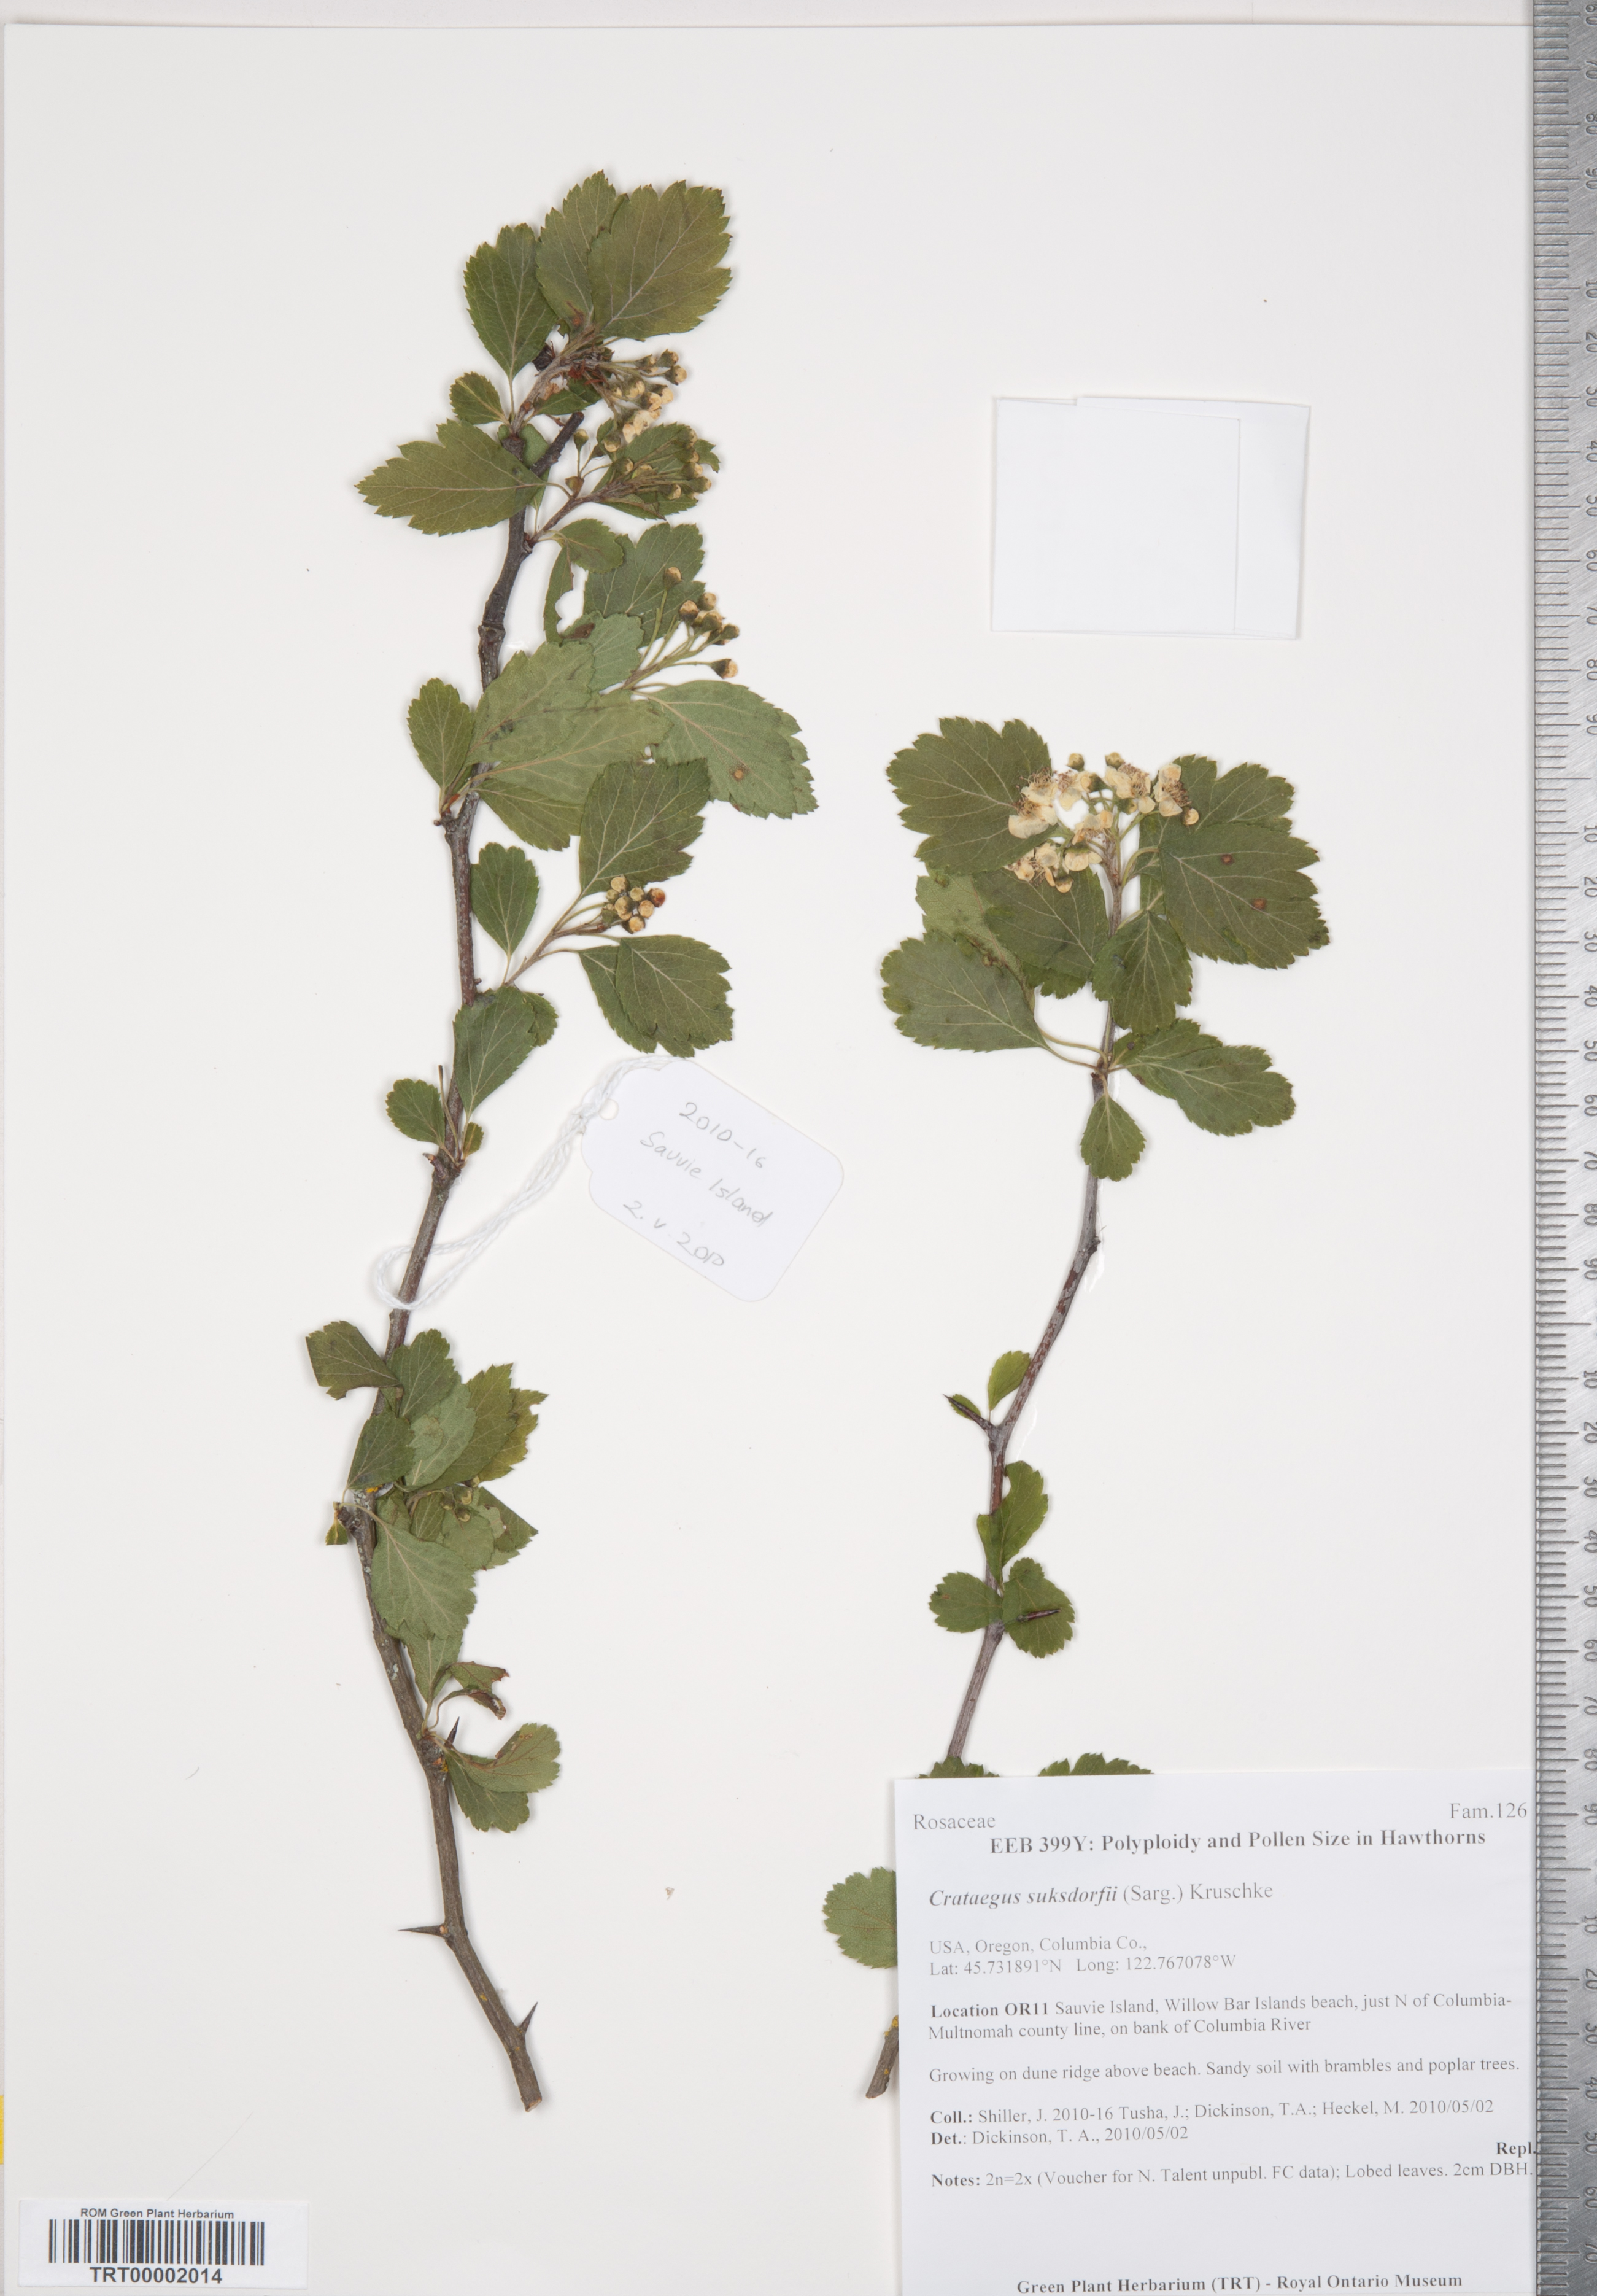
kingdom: Plantae
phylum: Tracheophyta
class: Magnoliopsida
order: Rosales
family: Rosaceae
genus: Crataegus
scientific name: Crataegus gaylussacia
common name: Huckleberry hawthorn
